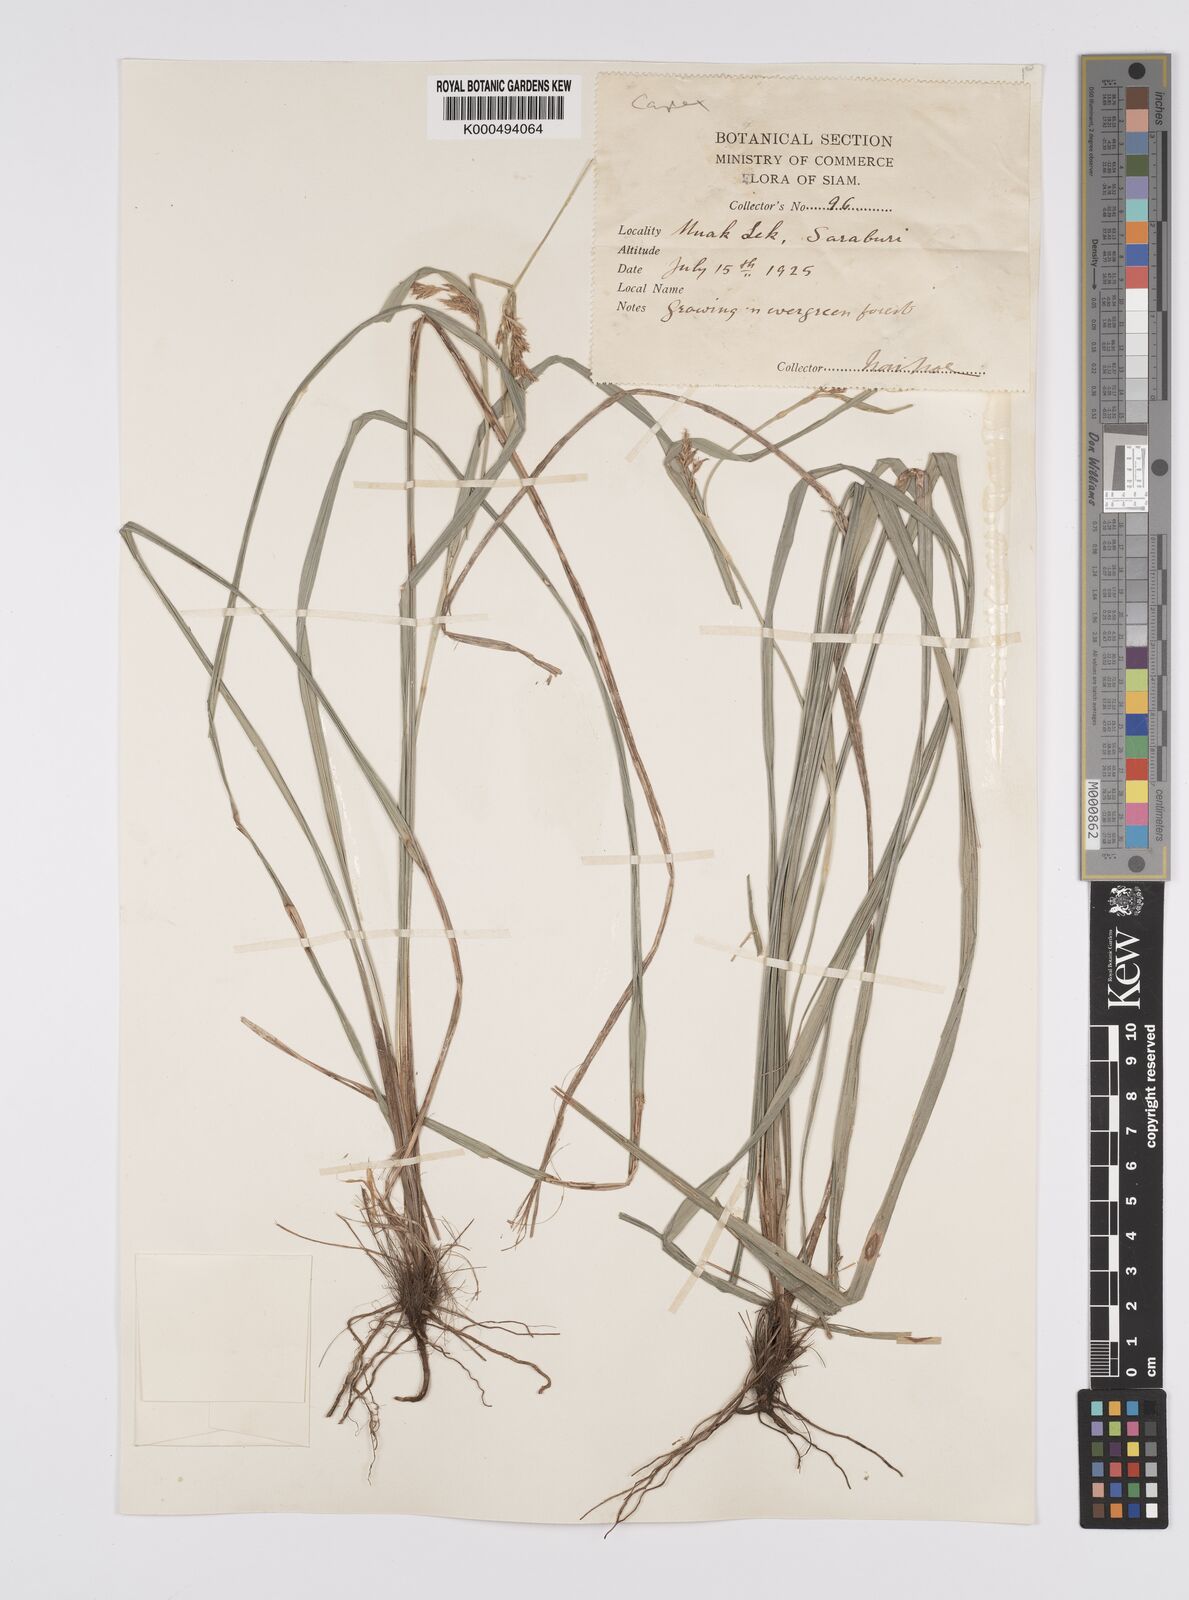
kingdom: Plantae
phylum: Tracheophyta
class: Liliopsida
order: Poales
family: Cyperaceae
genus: Carex
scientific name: Carex indica
